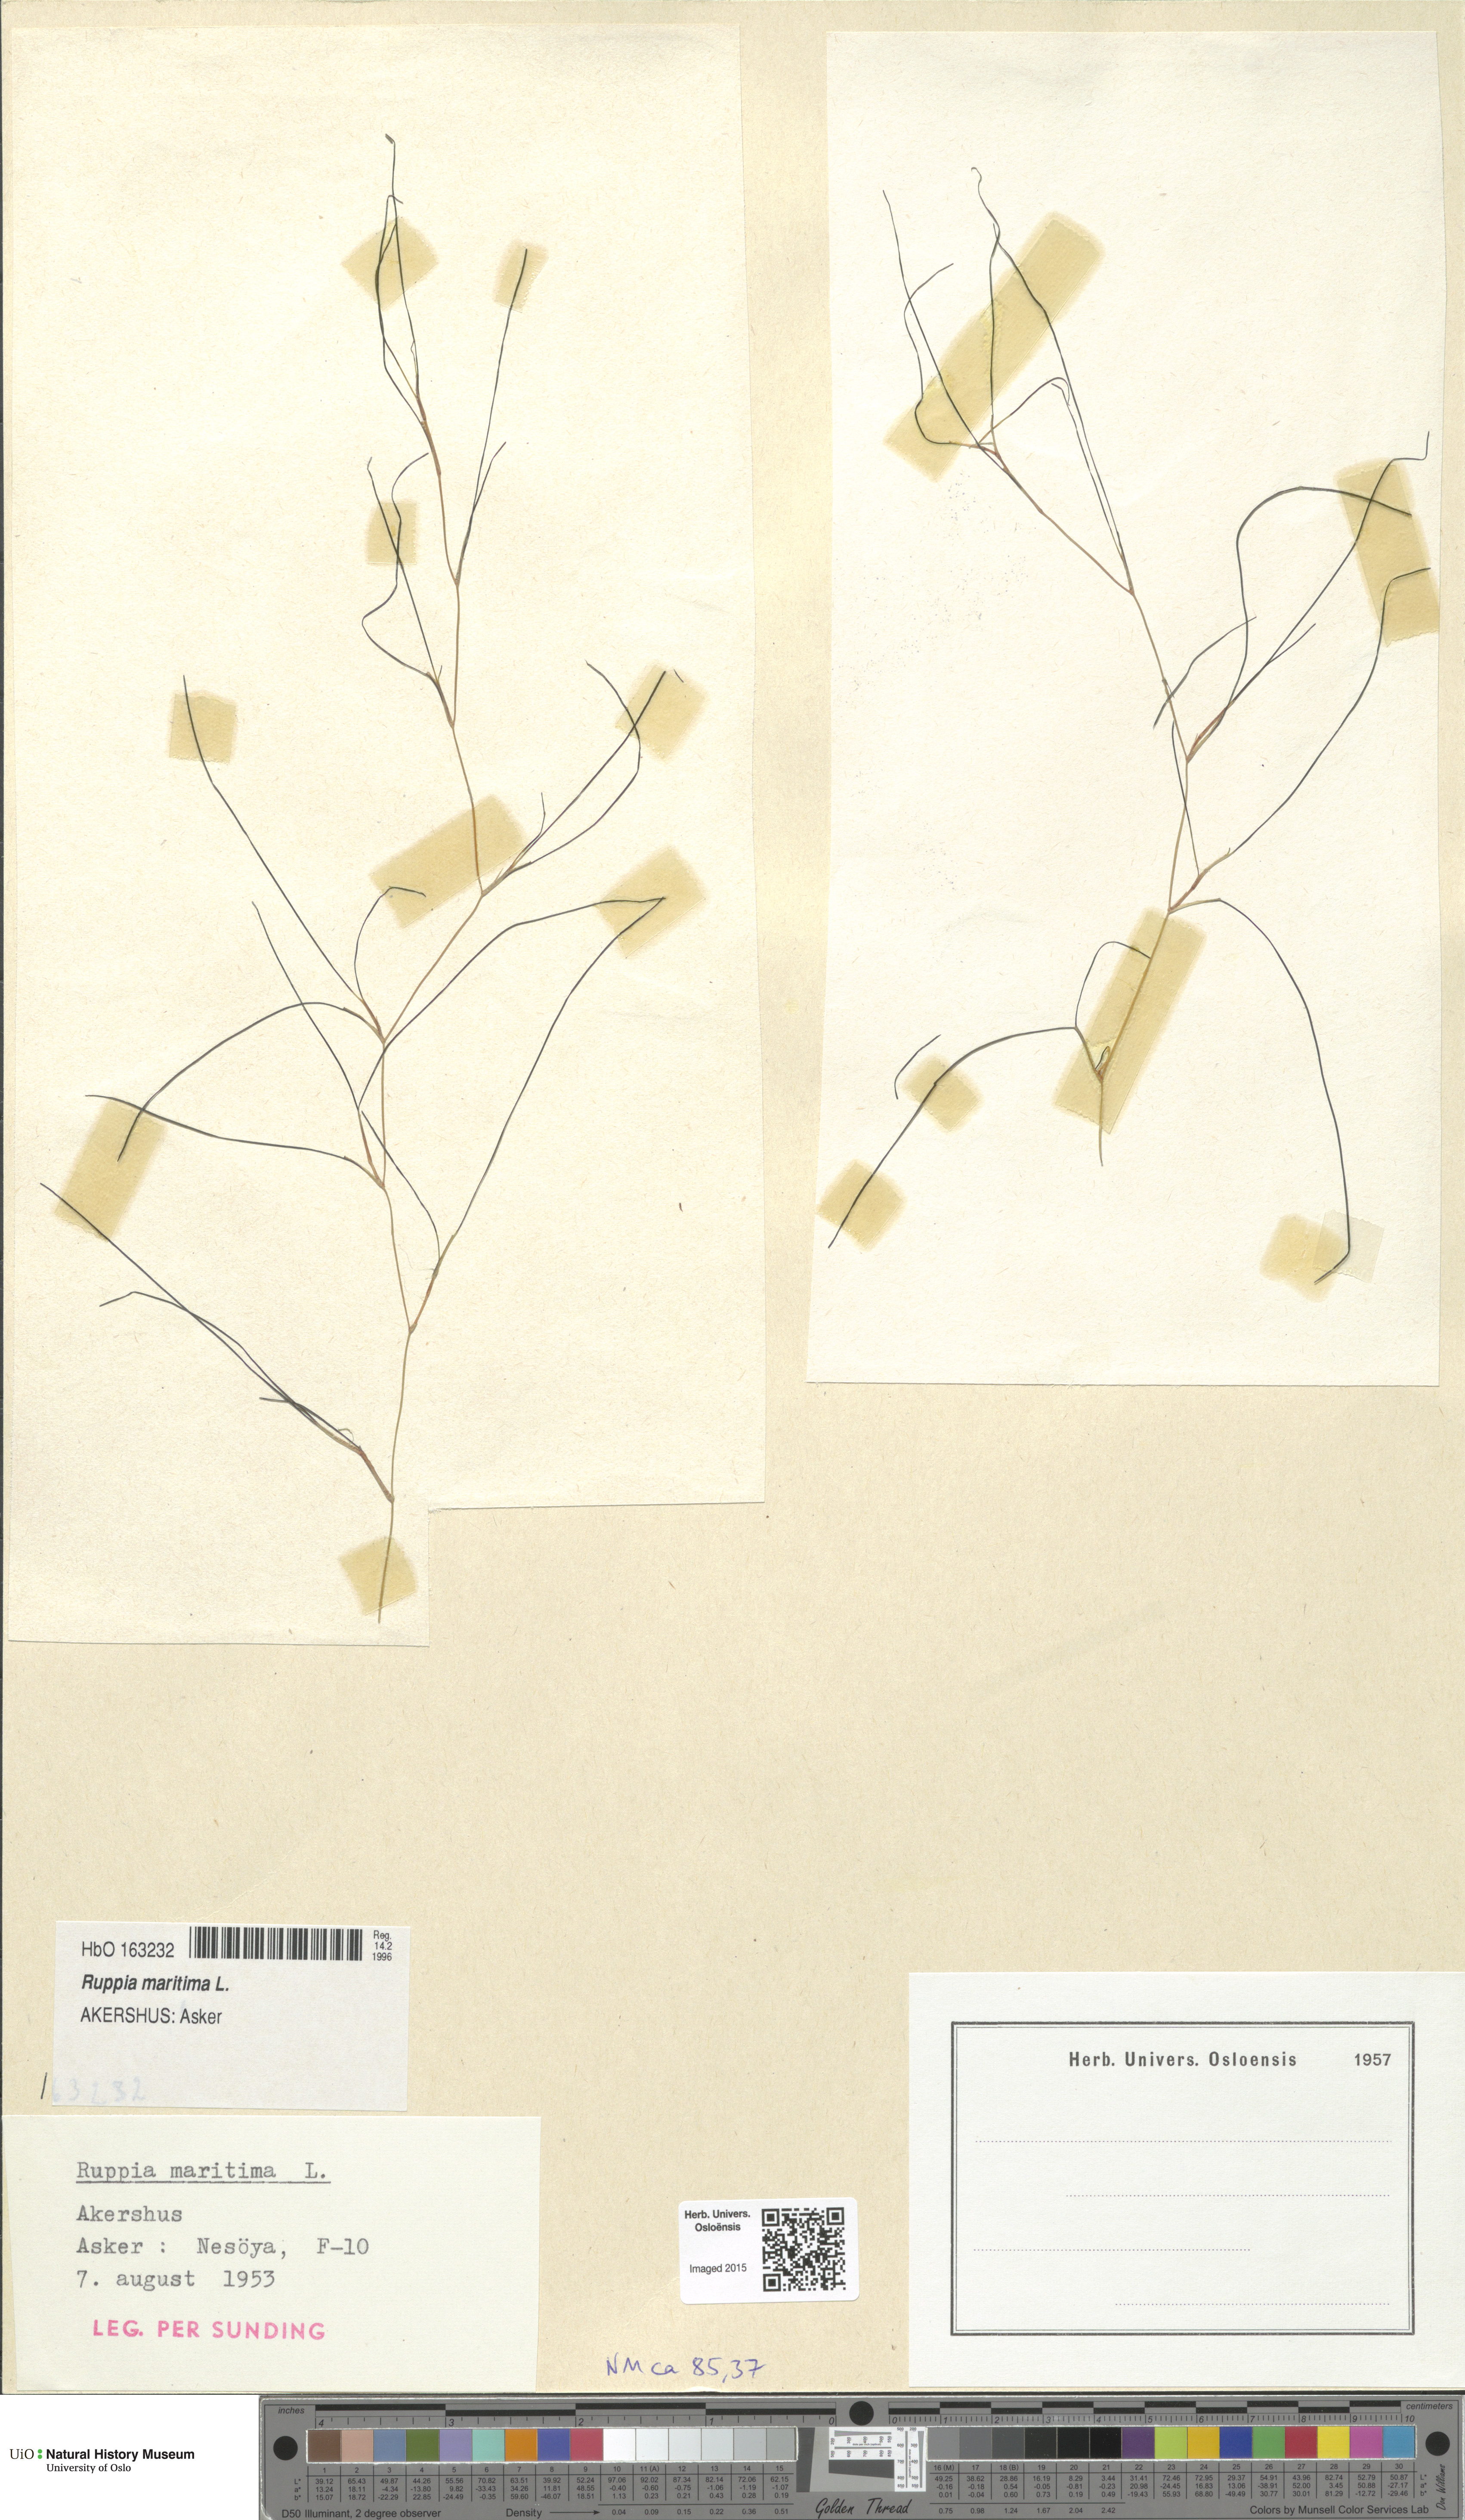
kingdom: Plantae
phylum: Tracheophyta
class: Liliopsida
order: Alismatales
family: Ruppiaceae
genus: Ruppia
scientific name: Ruppia maritima
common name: Beaked tasselweed
